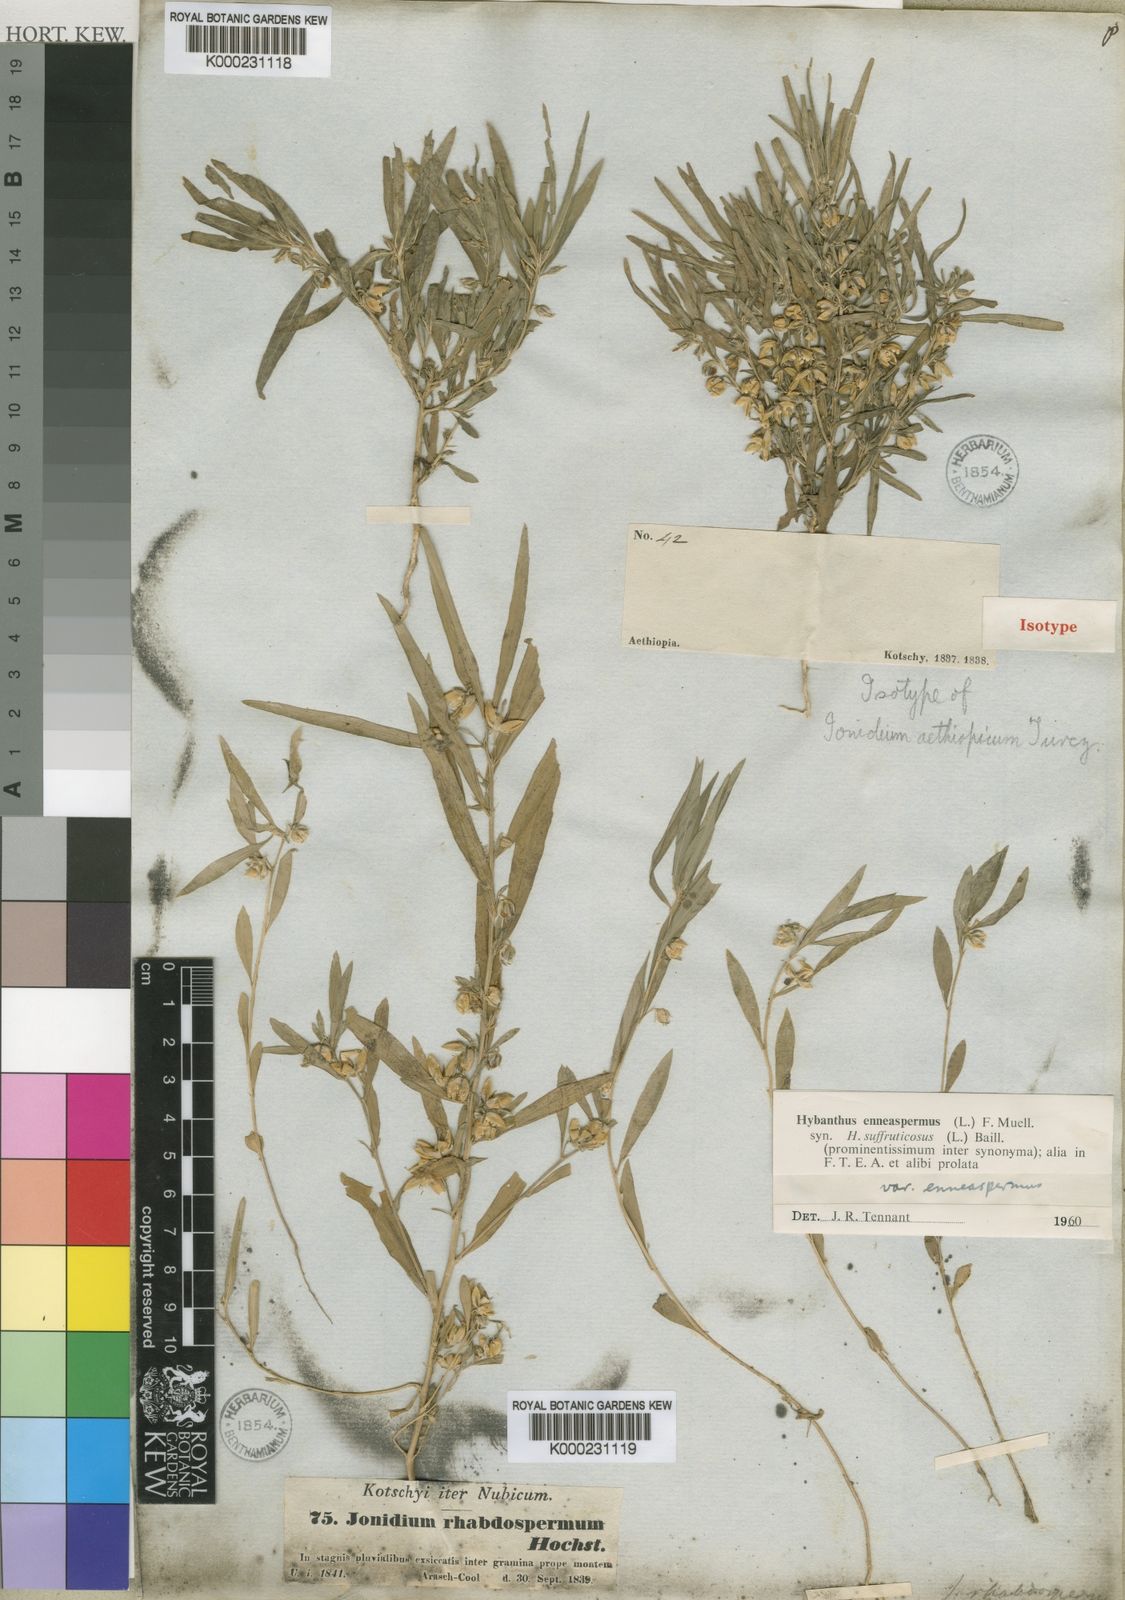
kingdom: Plantae
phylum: Tracheophyta
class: Magnoliopsida
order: Malpighiales
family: Violaceae
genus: Pigea
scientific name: Pigea enneasperma
